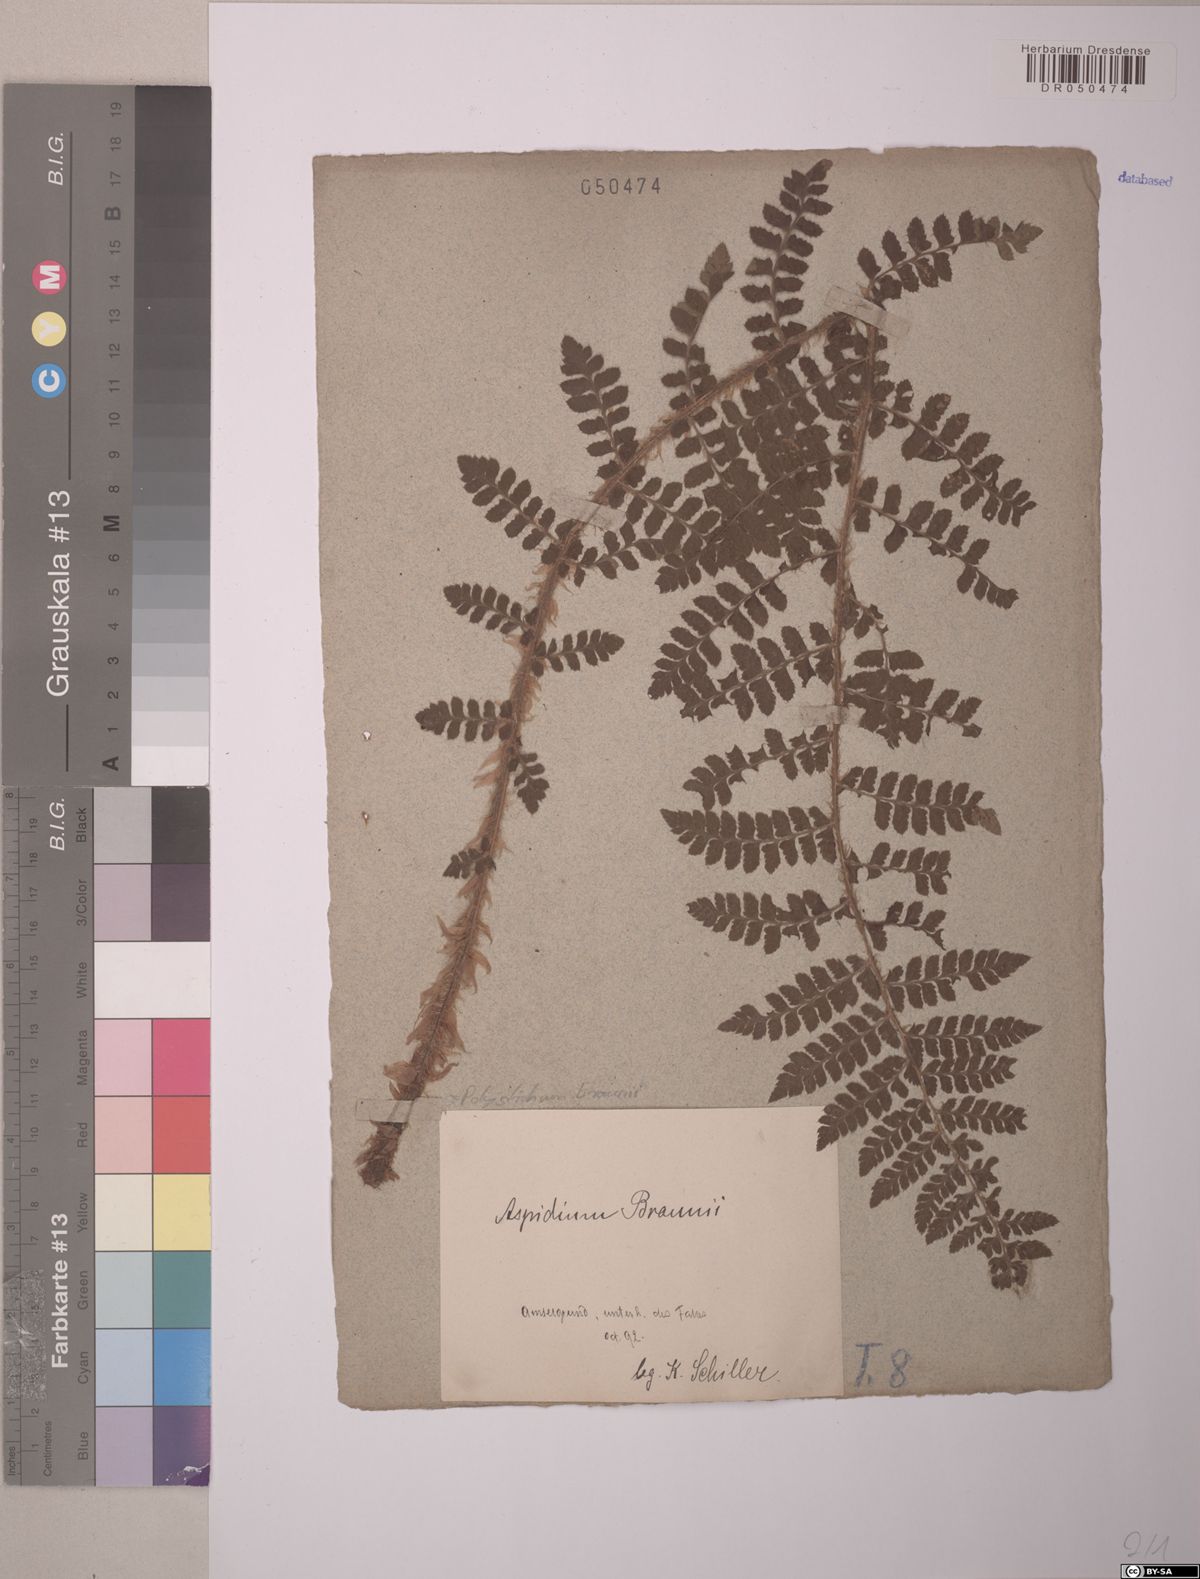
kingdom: Plantae
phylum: Tracheophyta
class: Polypodiopsida
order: Polypodiales
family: Dryopteridaceae
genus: Polystichum
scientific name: Polystichum braunii
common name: Braun's holly fern
